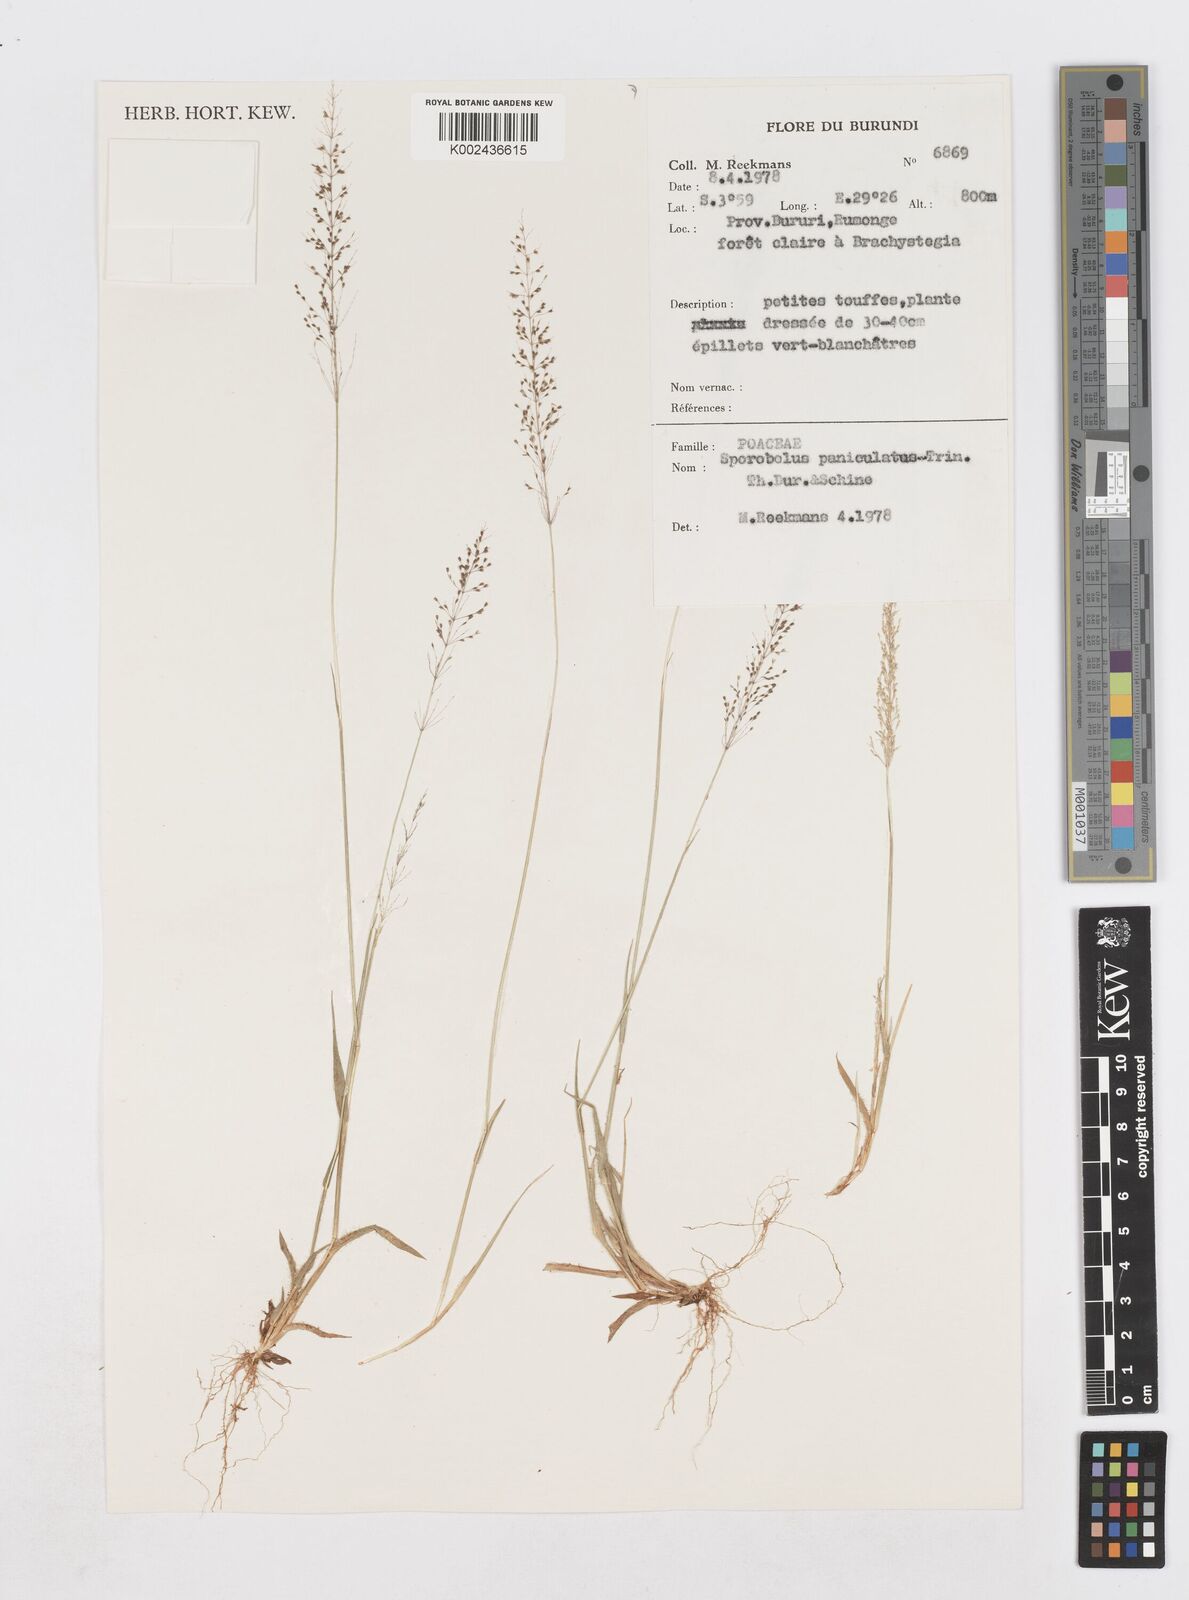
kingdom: Plantae
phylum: Tracheophyta
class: Liliopsida
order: Poales
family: Poaceae
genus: Sporobolus
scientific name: Sporobolus paniculatus
